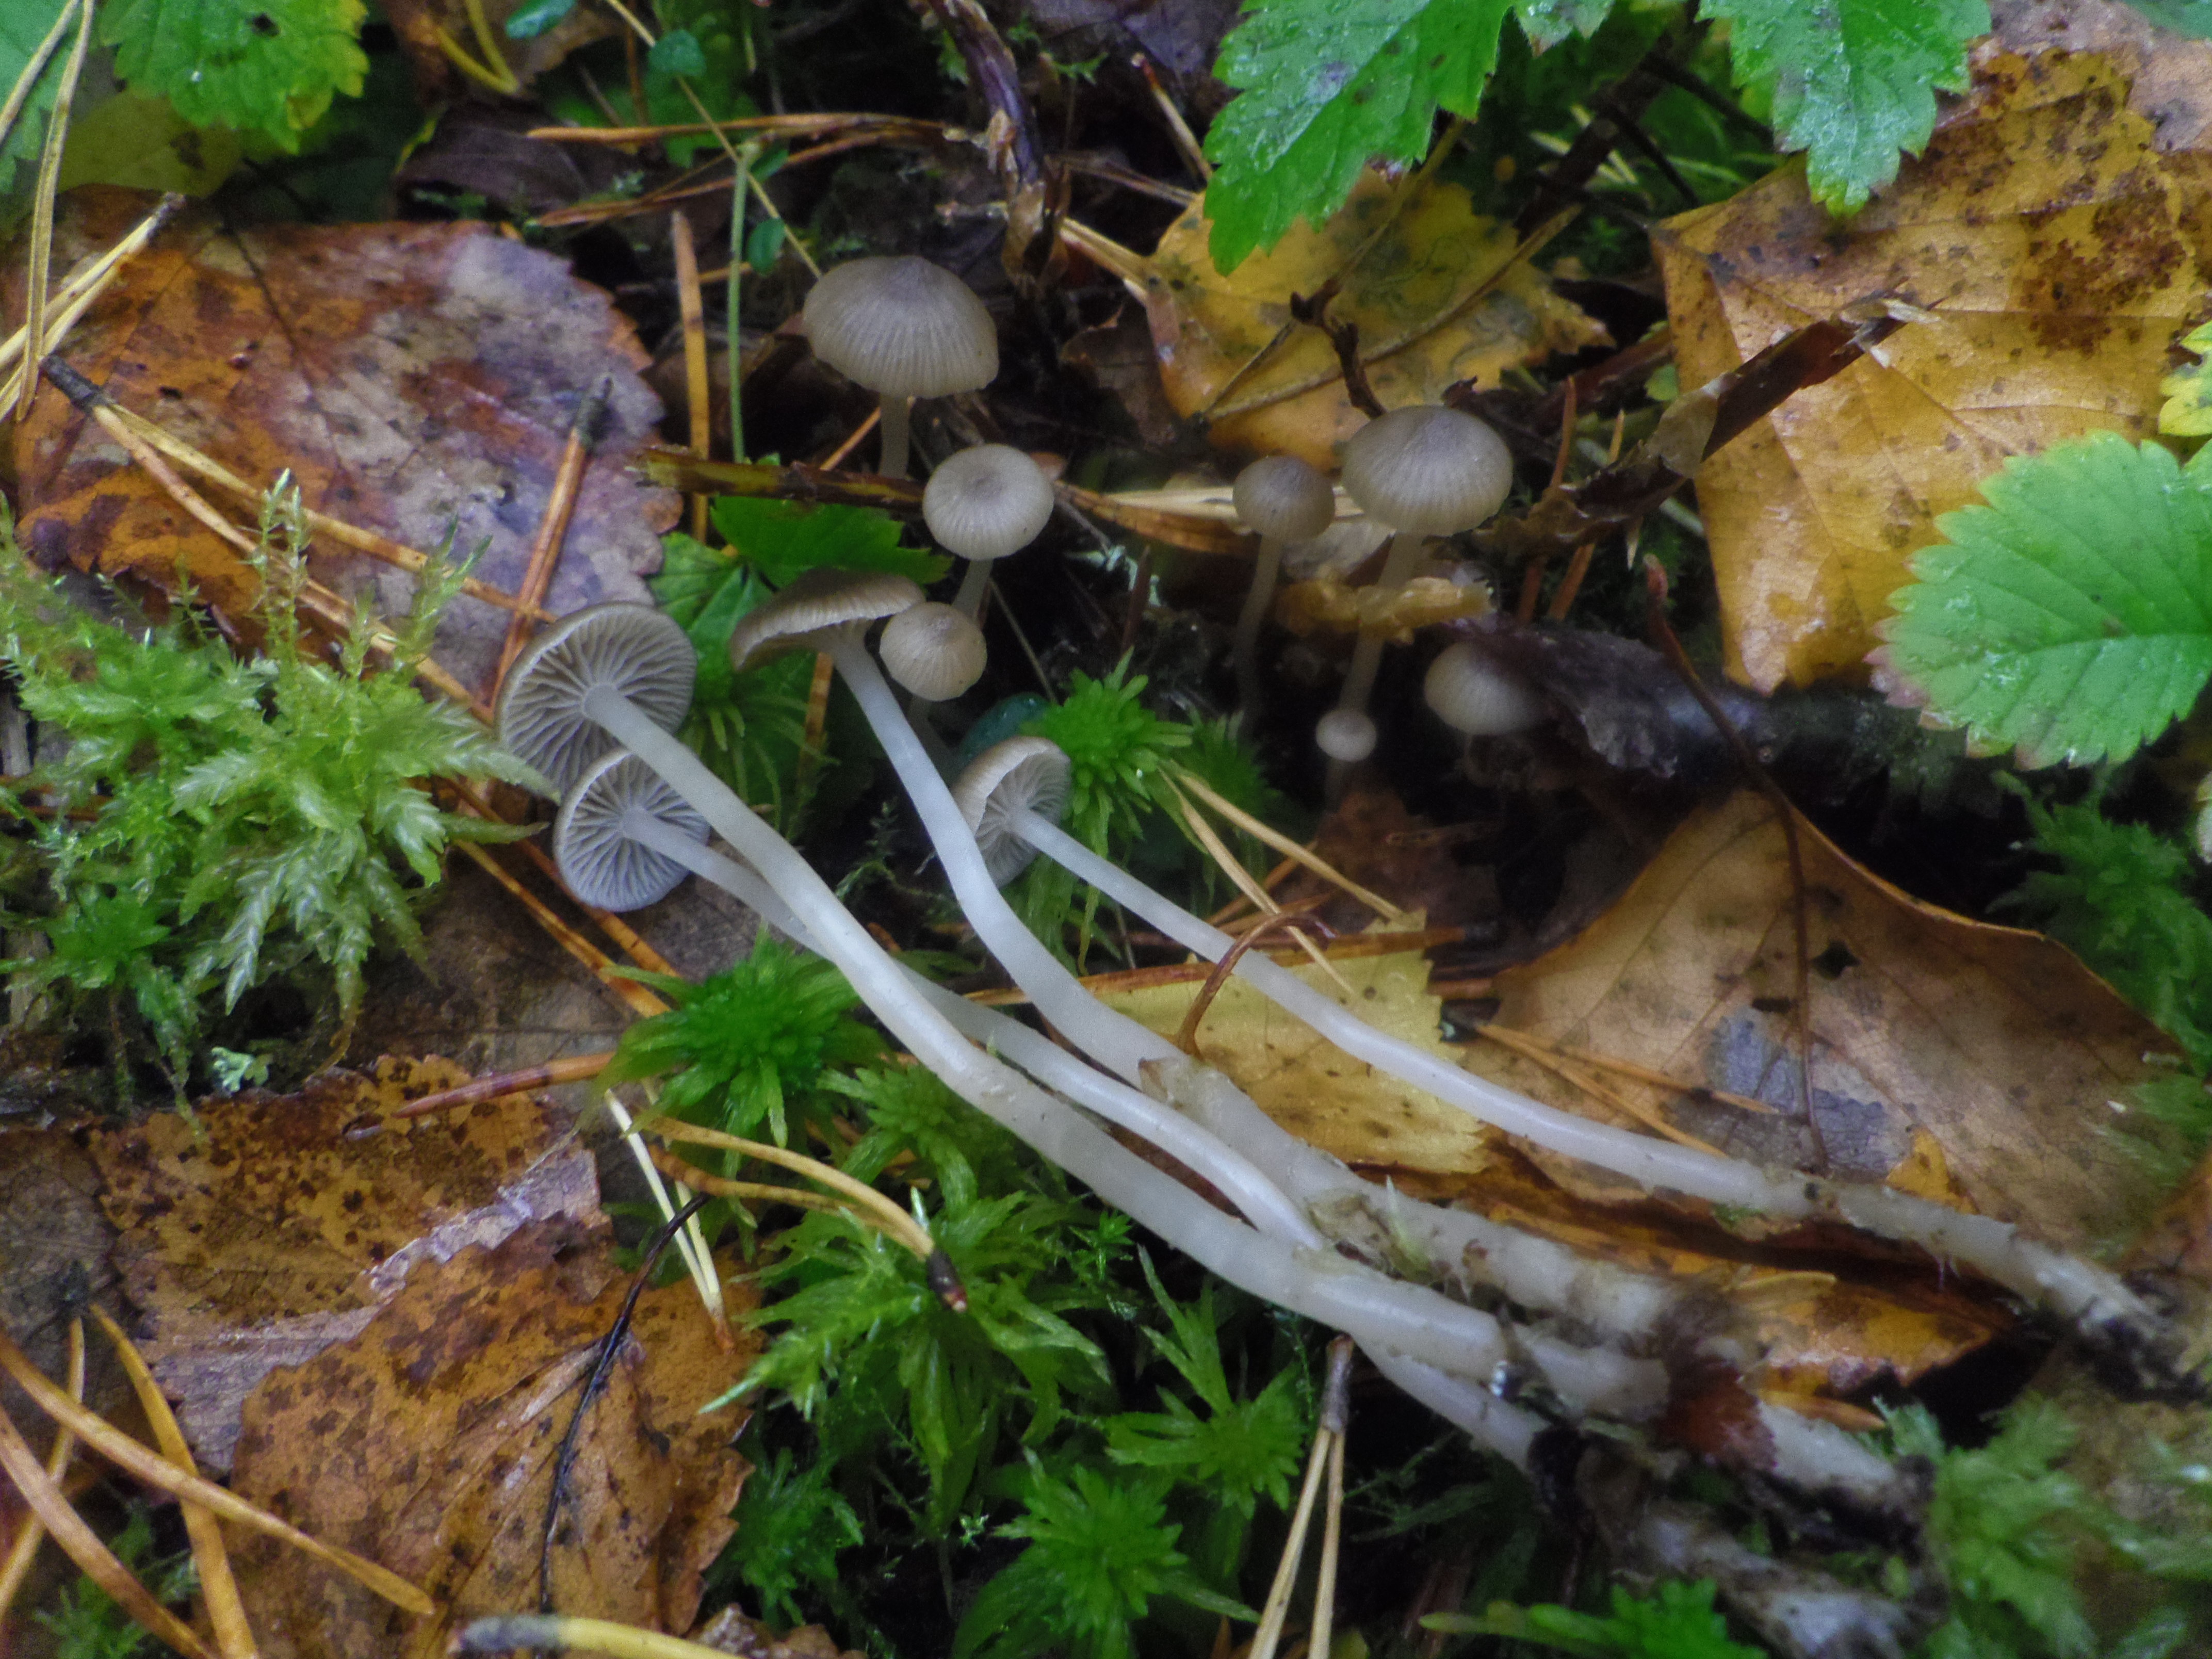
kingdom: Fungi
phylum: Basidiomycota
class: Agaricomycetes
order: Agaricales
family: Tricholomataceae
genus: Fayodia
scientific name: Fayodia
